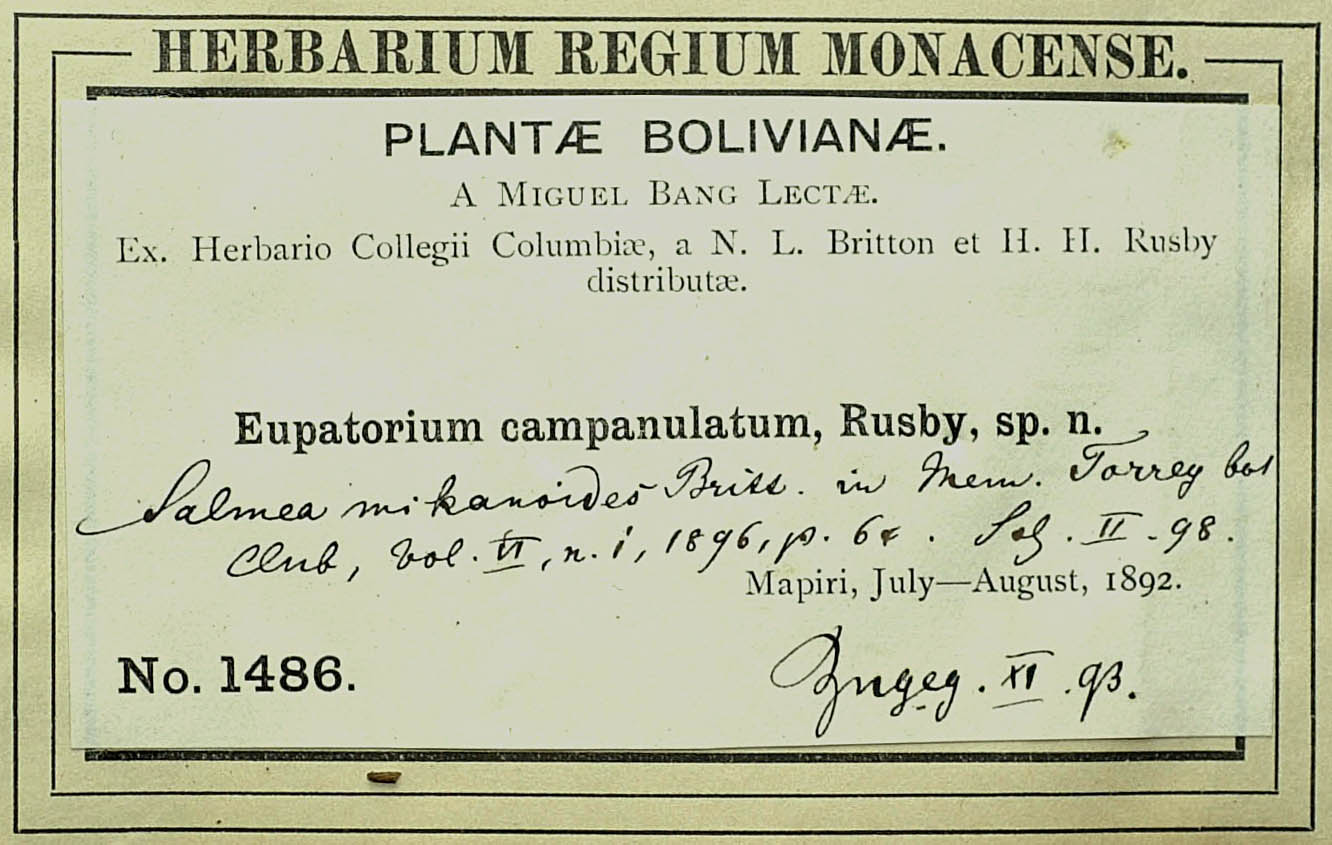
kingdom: Plantae
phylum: Tracheophyta
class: Magnoliopsida
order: Asterales
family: Asteraceae
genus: Oblivia
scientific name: Oblivia mikanioides
